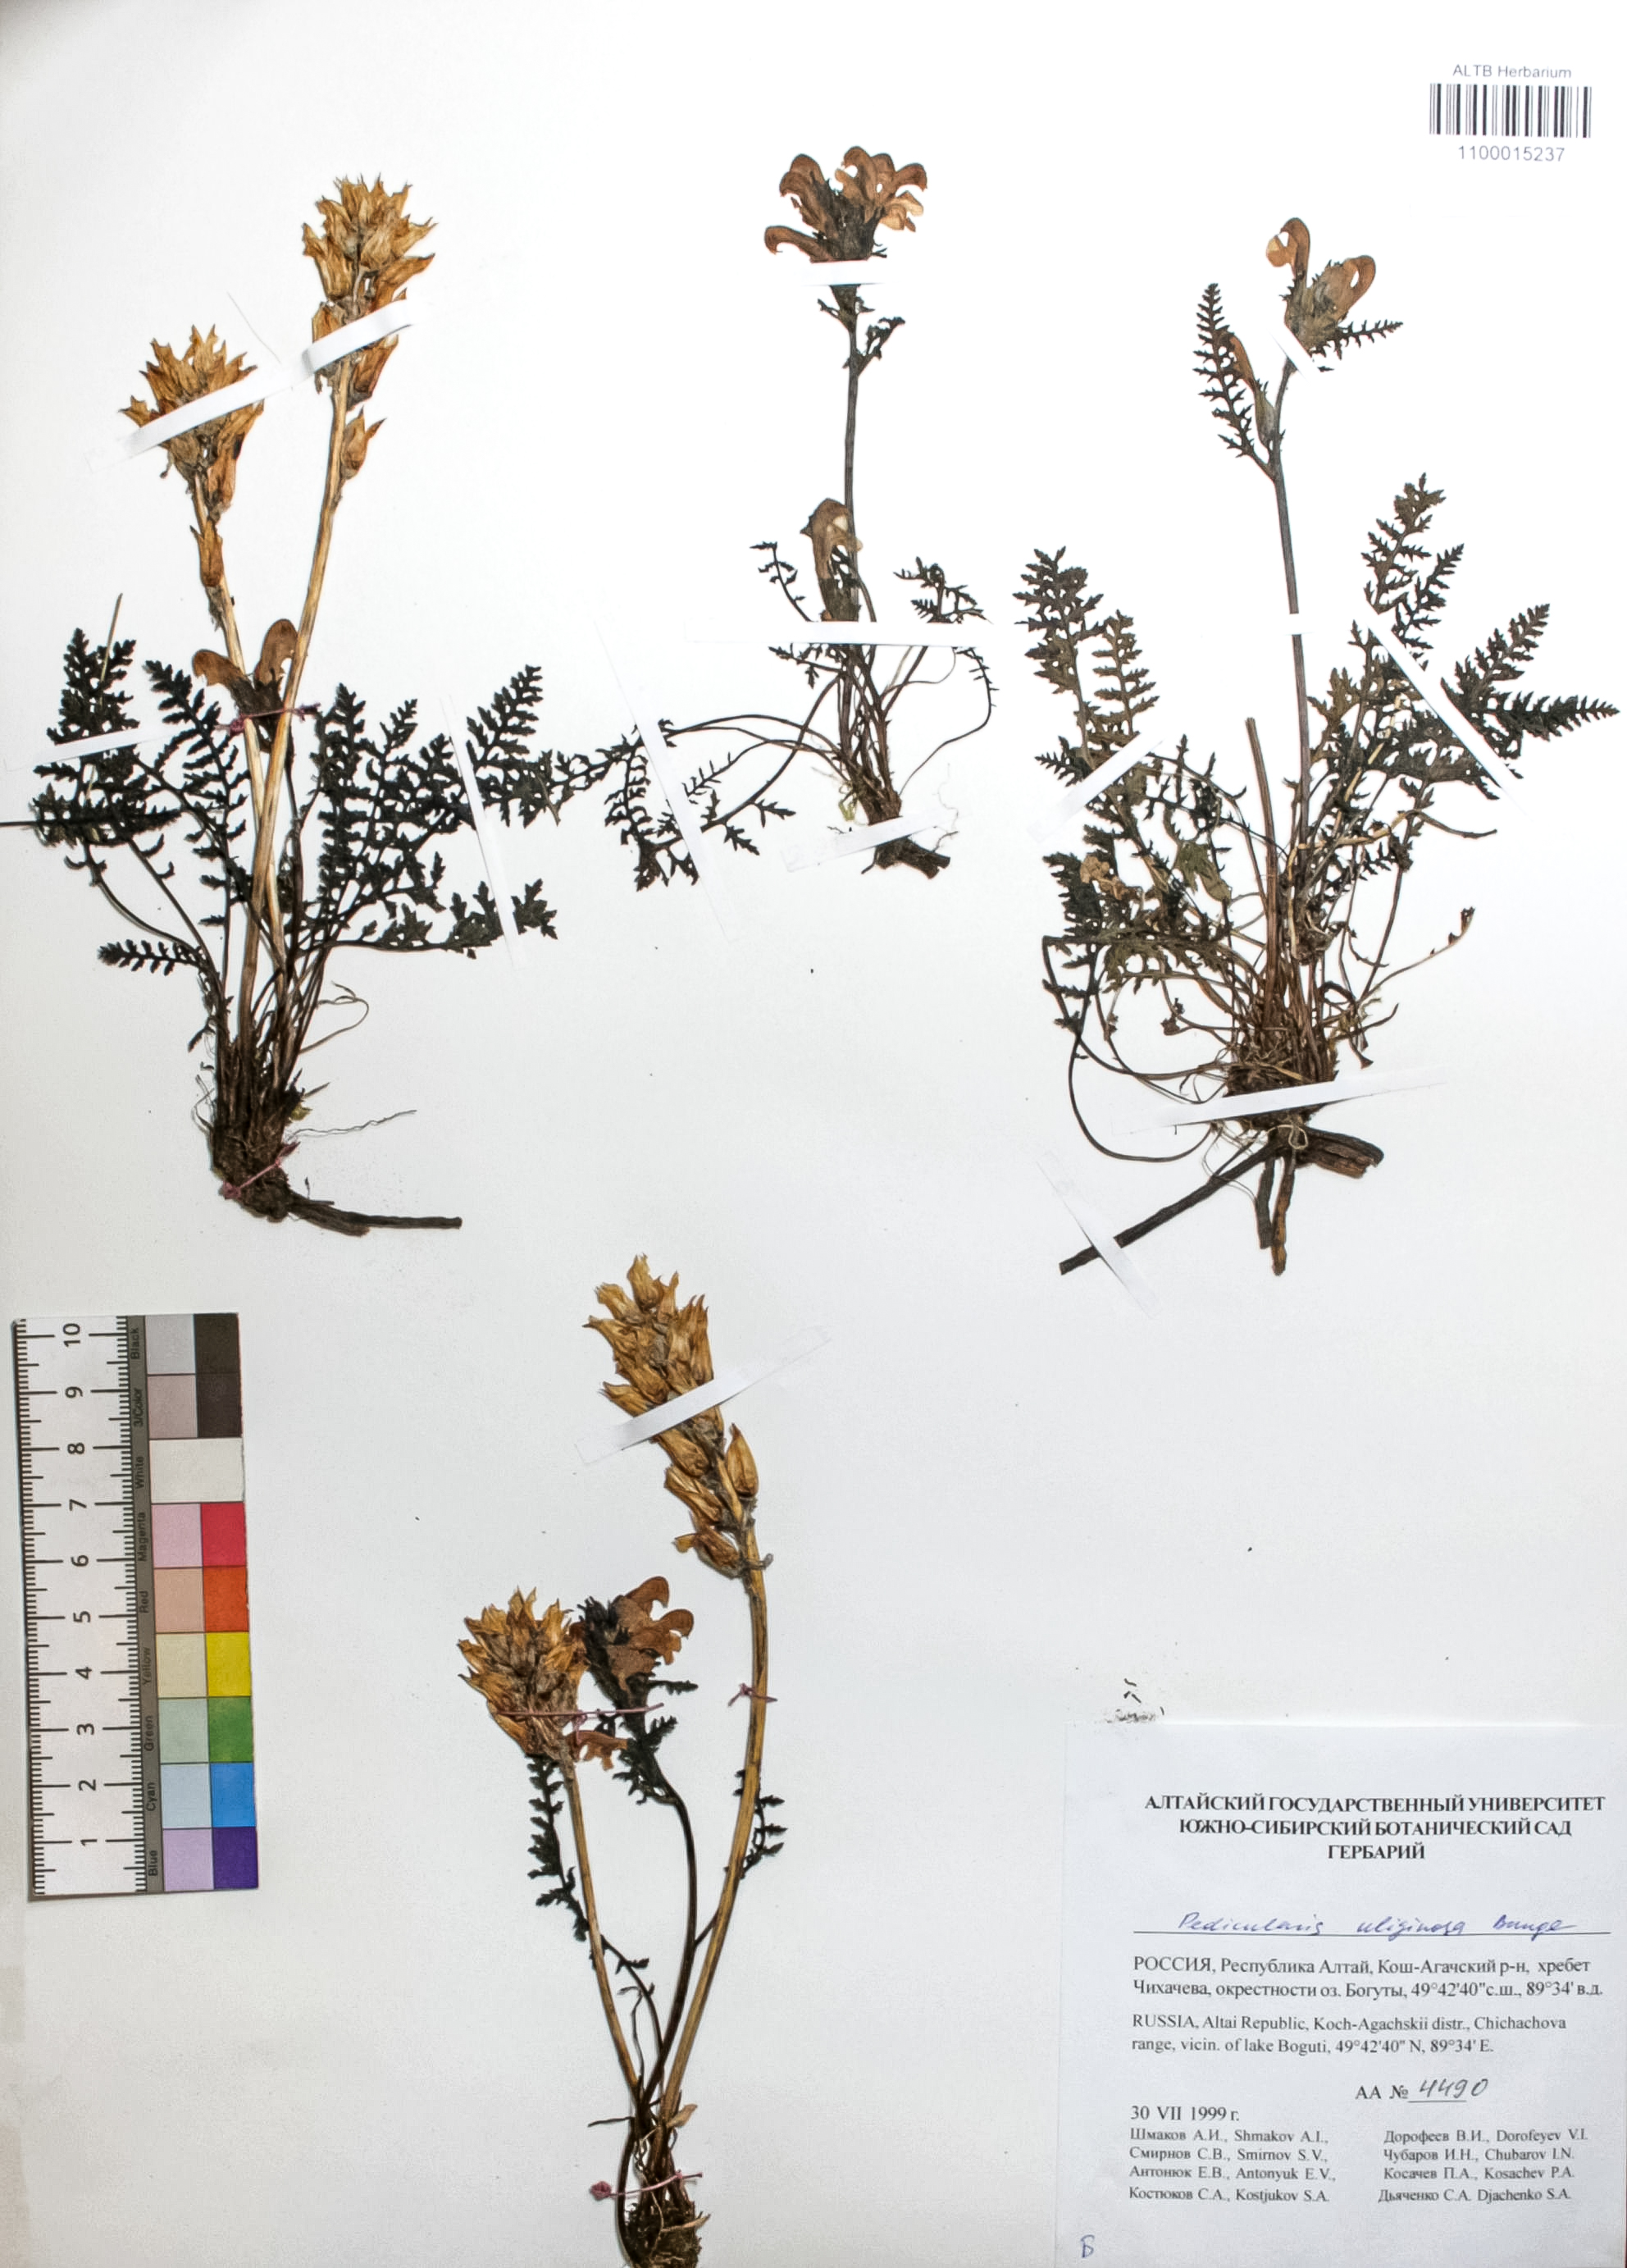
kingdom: Plantae
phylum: Tracheophyta
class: Magnoliopsida
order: Lamiales
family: Orobanchaceae
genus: Pedicularis
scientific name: Pedicularis uliginosa
